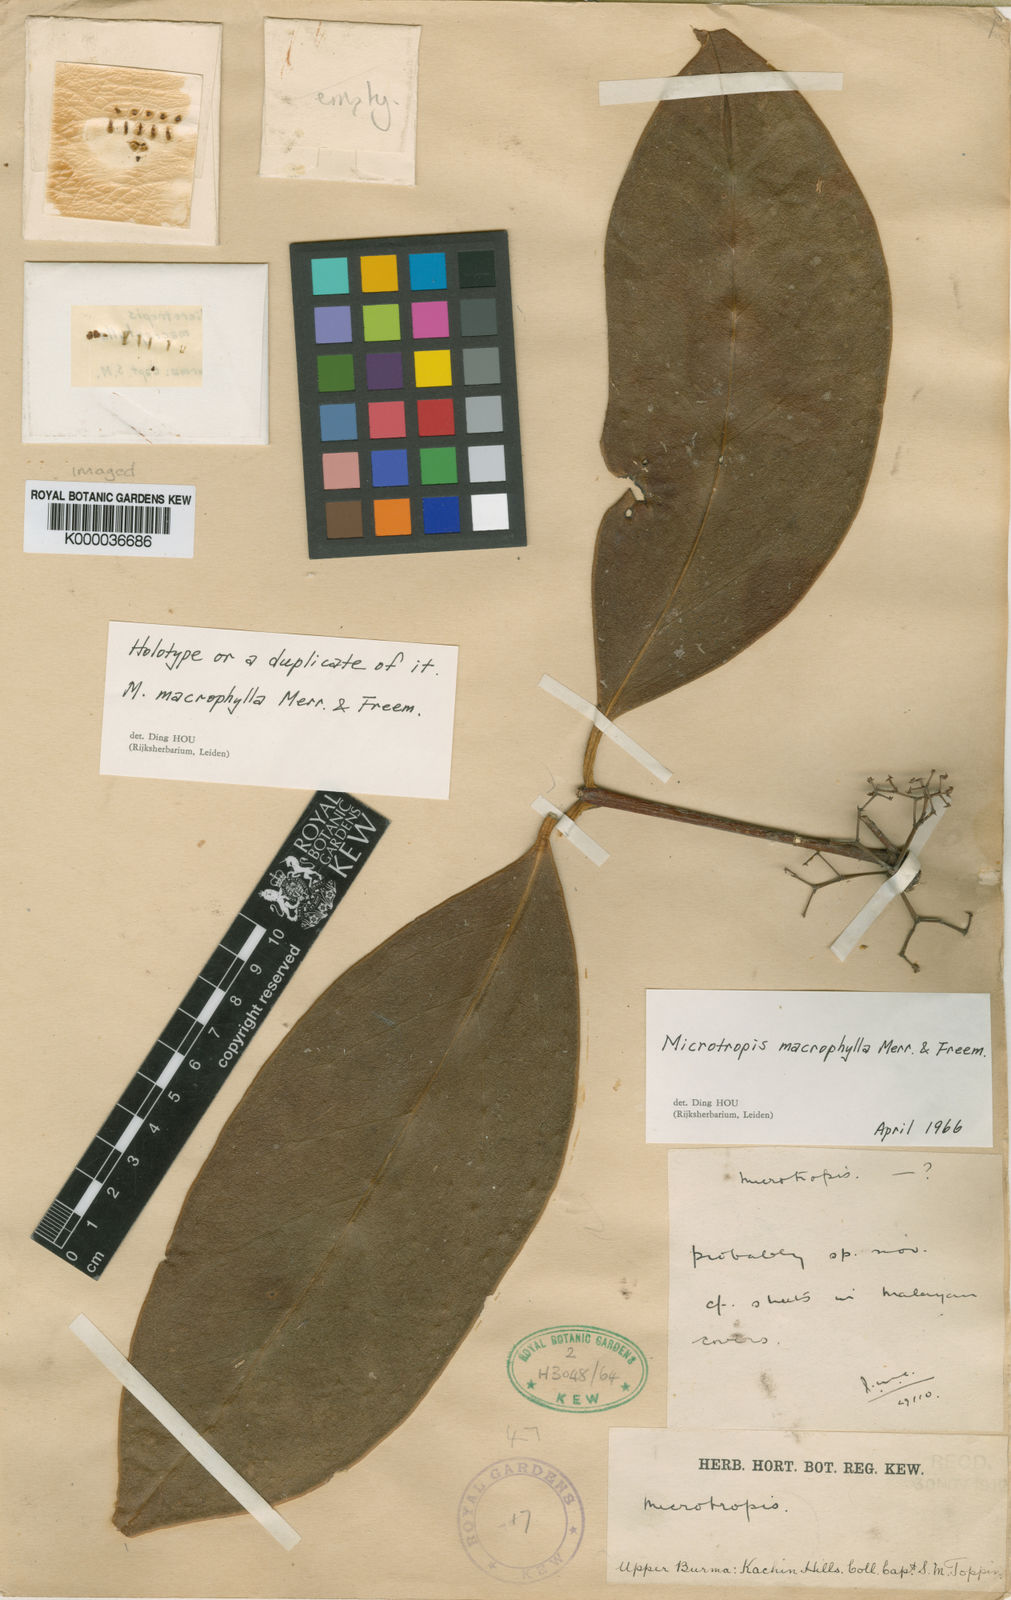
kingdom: Plantae
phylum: Tracheophyta
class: Magnoliopsida
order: Celastrales
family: Celastraceae
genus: Microtropis
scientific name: Microtropis longifolia
